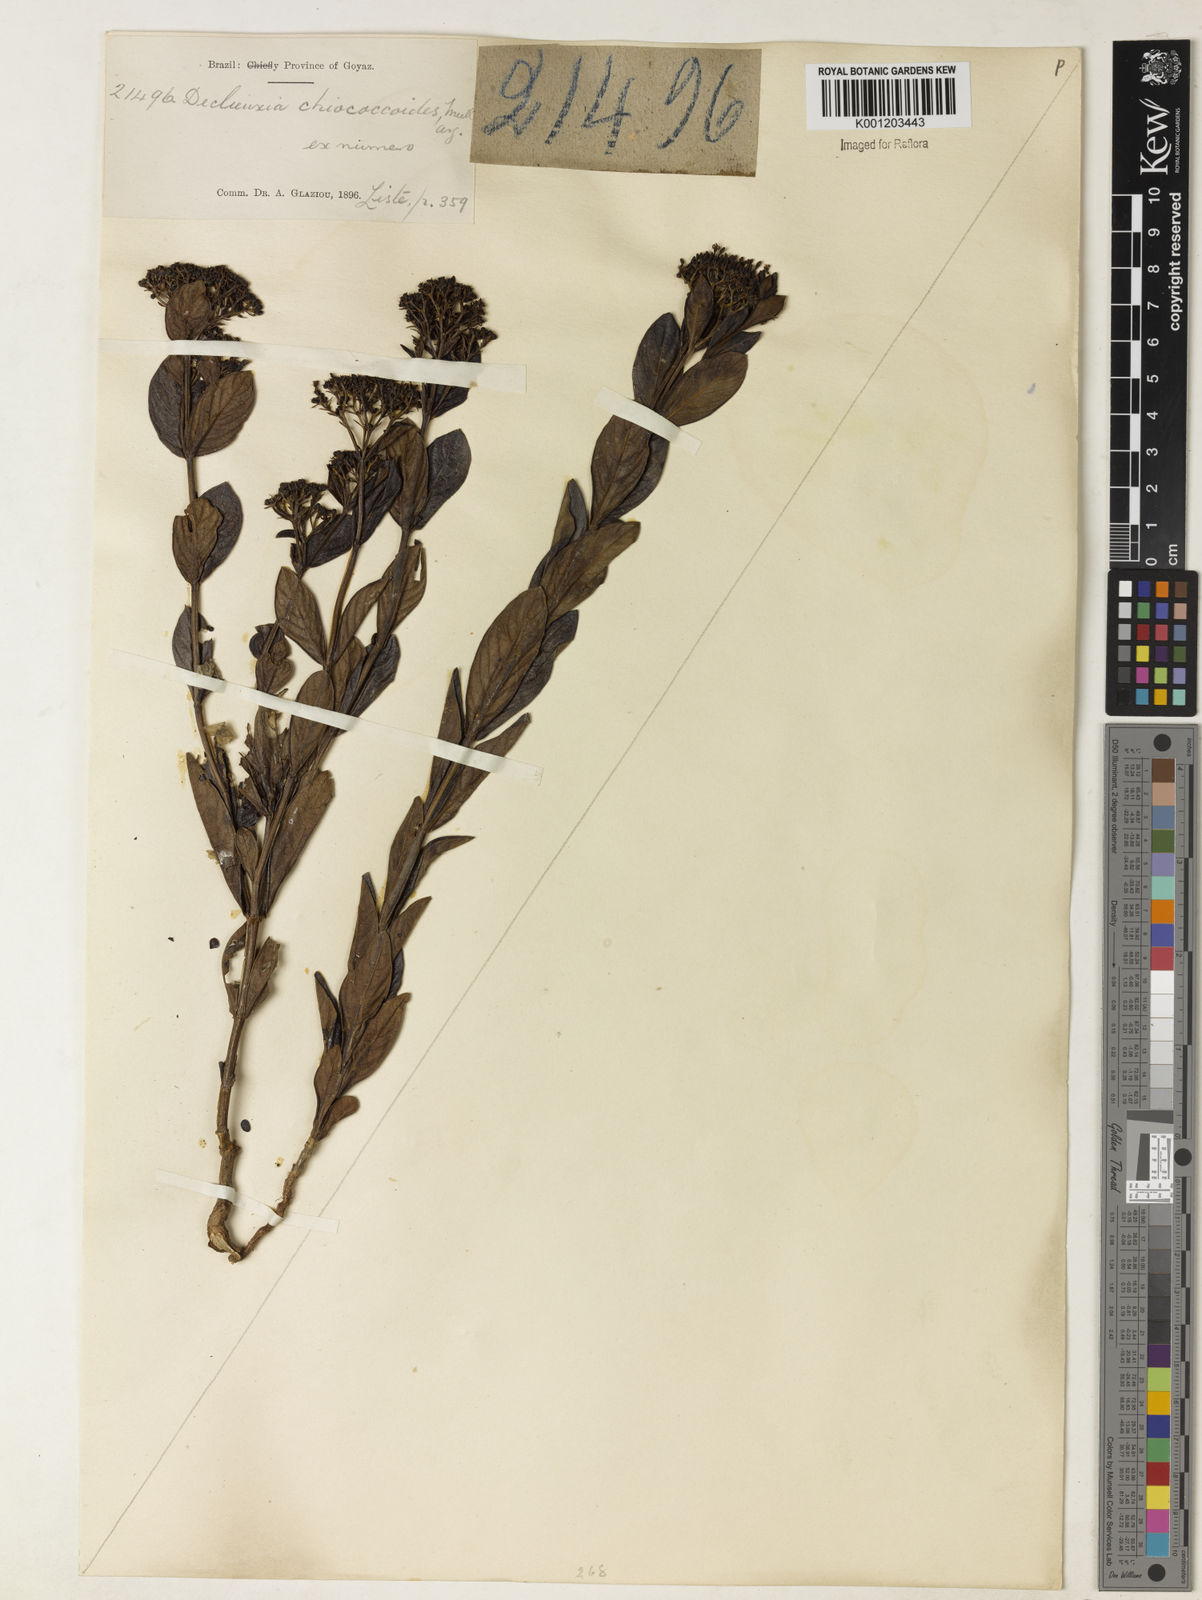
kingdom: Plantae
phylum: Tracheophyta
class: Magnoliopsida
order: Gentianales
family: Rubiaceae
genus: Declieuxia
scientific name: Declieuxia fruticosa
